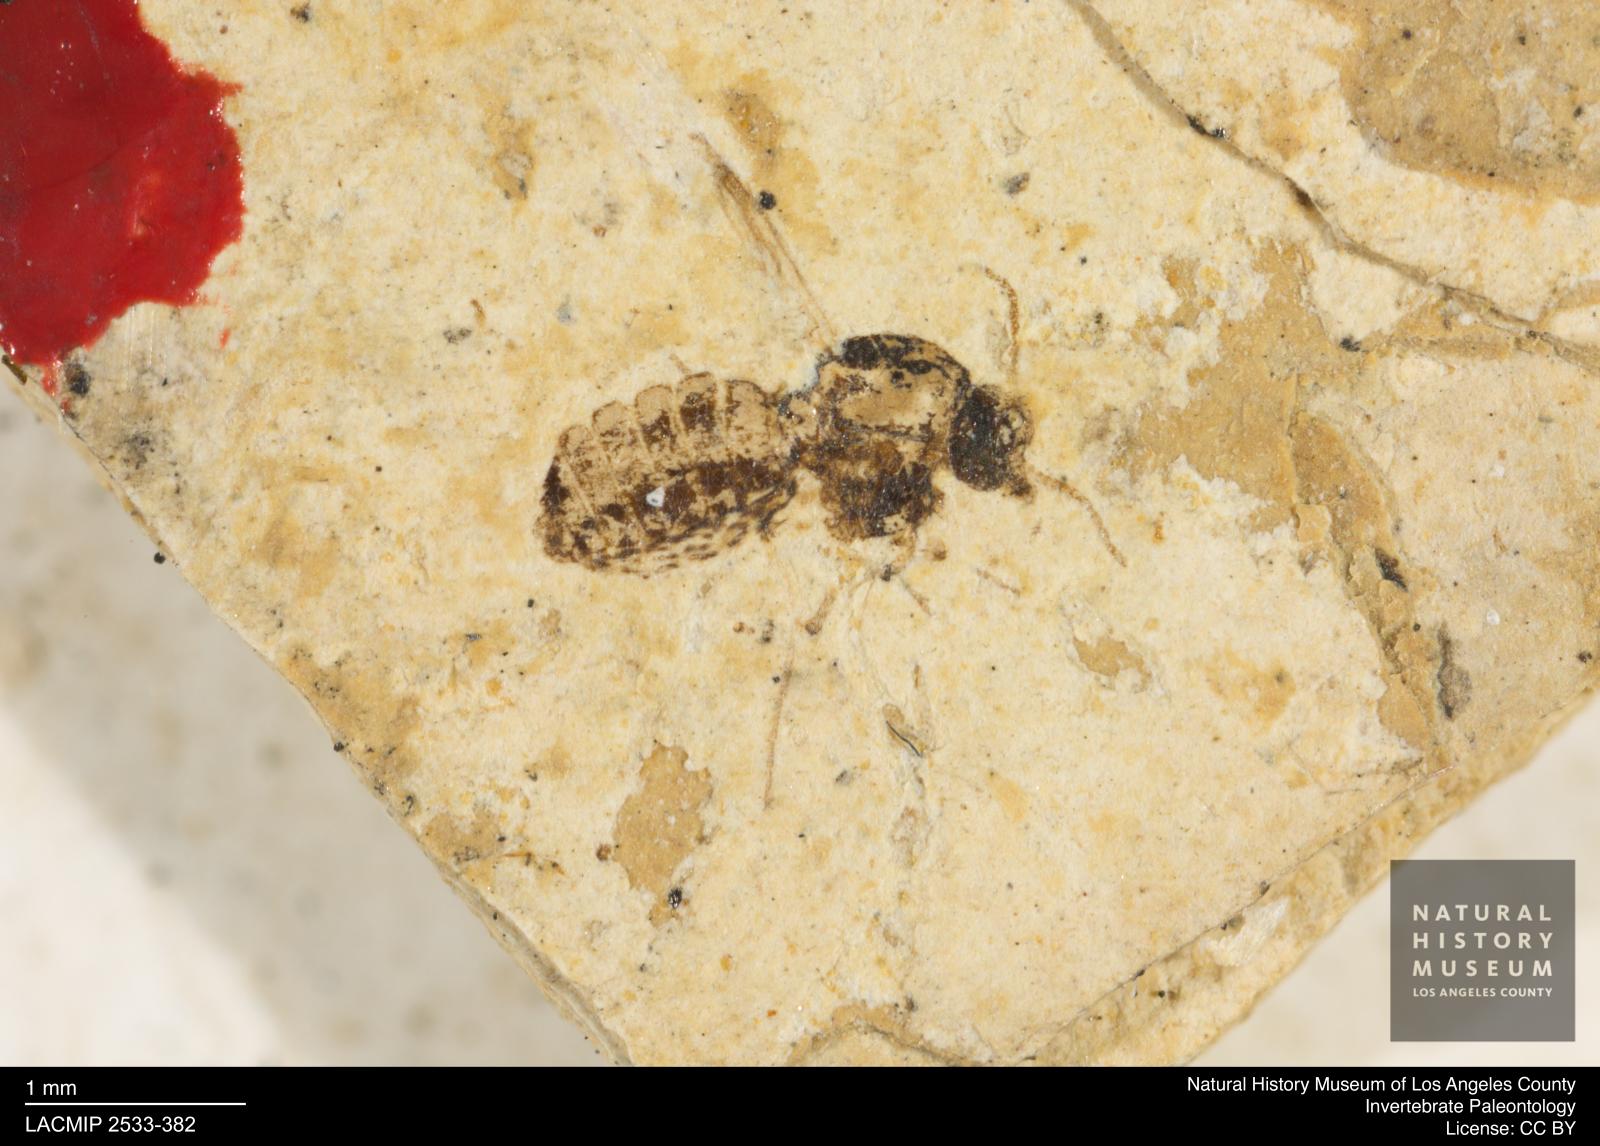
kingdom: Animalia
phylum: Arthropoda
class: Insecta
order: Diptera
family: Ceratopogonidae
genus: Culicoides
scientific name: Culicoides obesus
